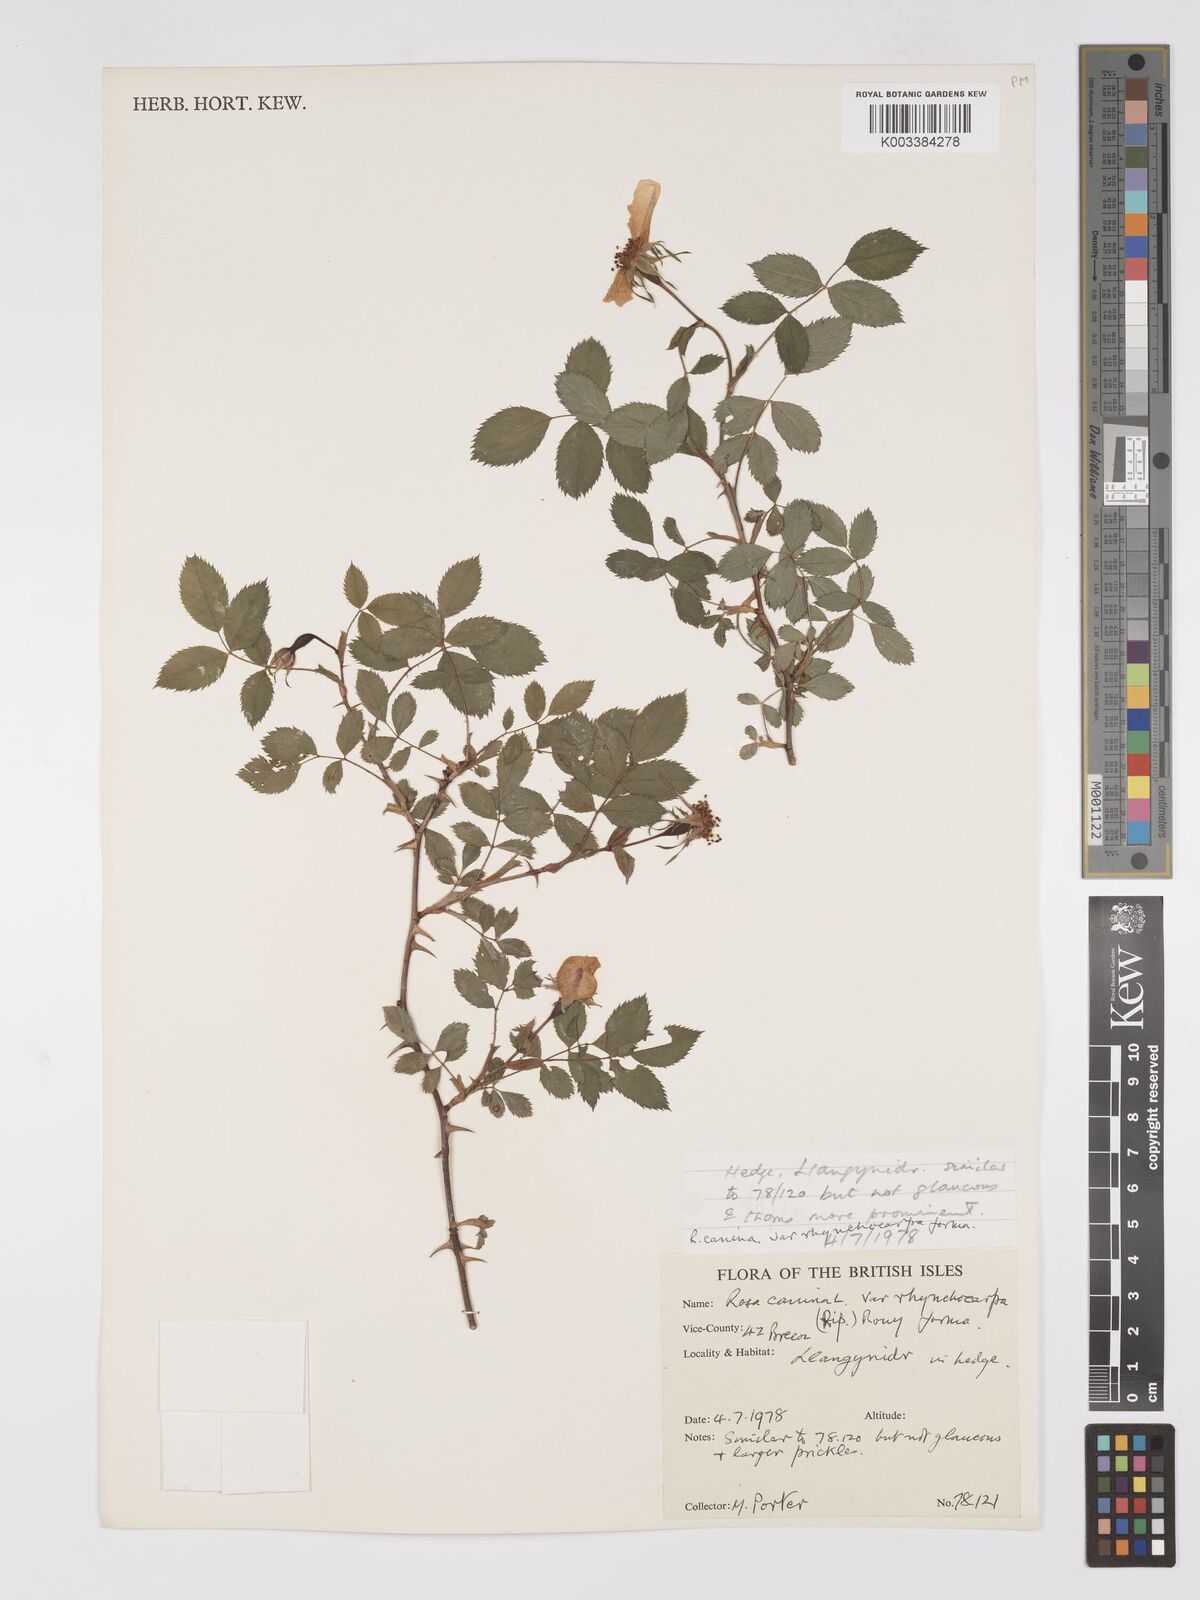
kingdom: Plantae
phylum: Tracheophyta
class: Magnoliopsida
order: Rosales
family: Rosaceae
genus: Rosa
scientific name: Rosa canina
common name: Dog rose
